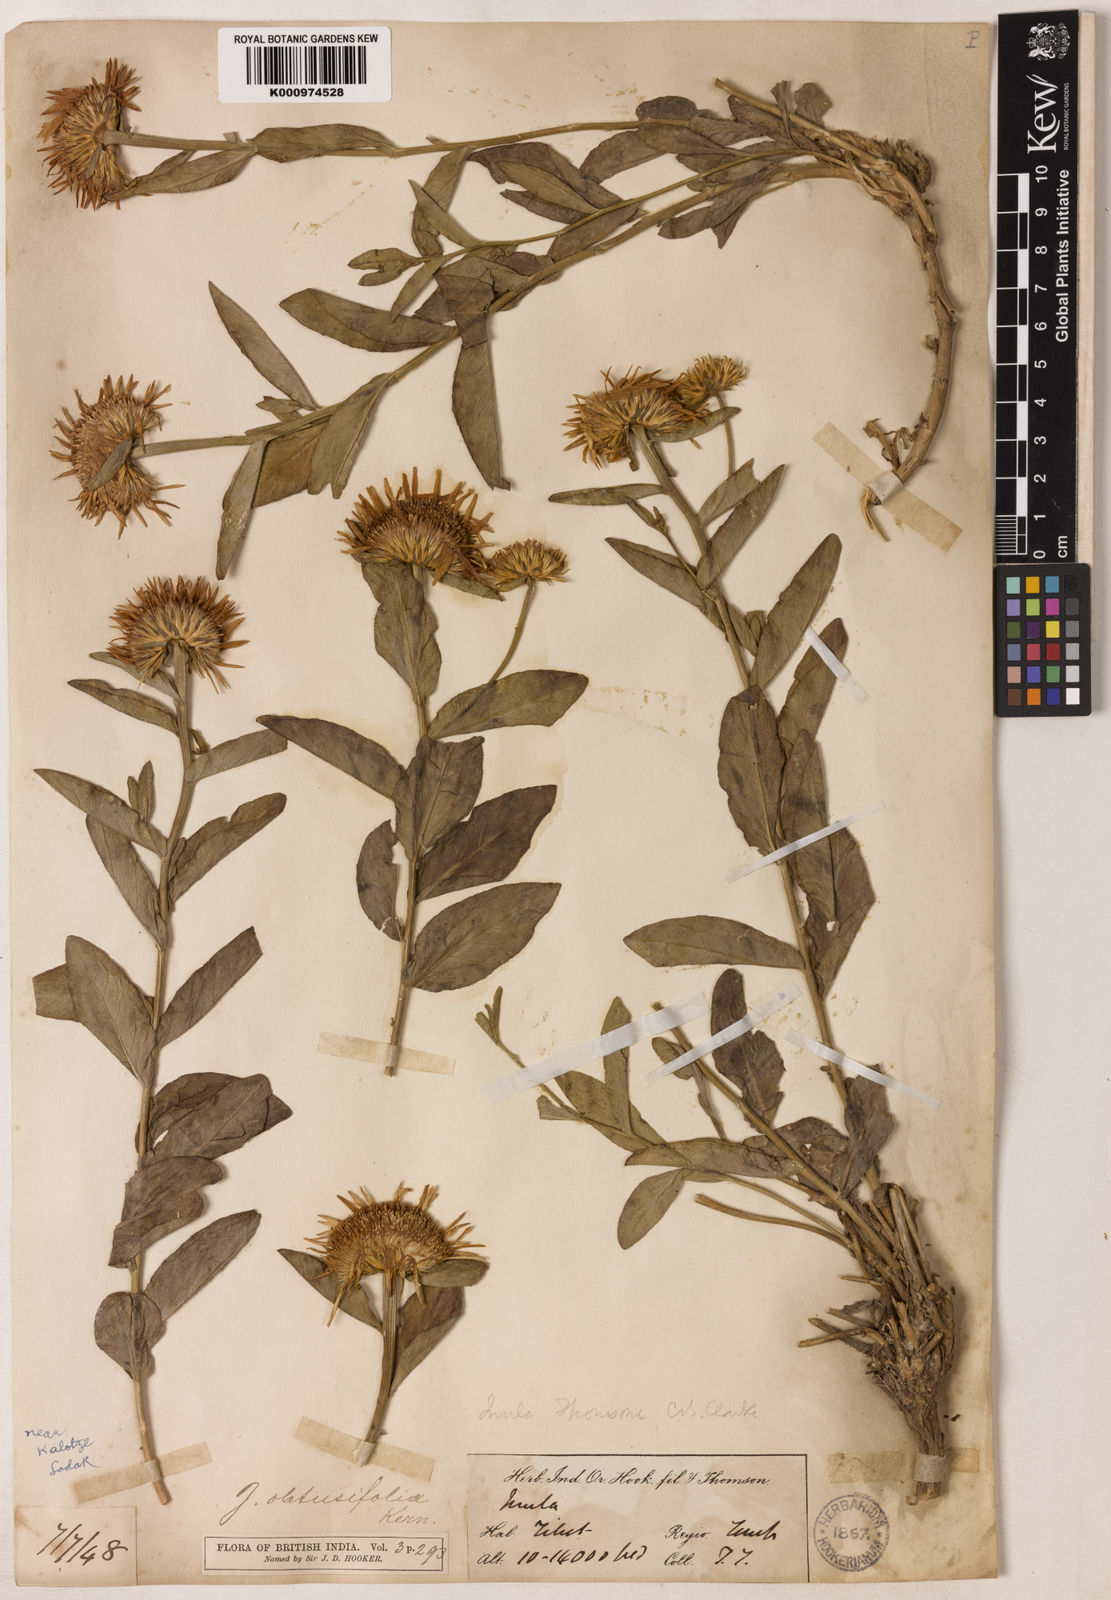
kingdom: Plantae
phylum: Tracheophyta
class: Magnoliopsida
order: Asterales
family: Asteraceae
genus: Inula
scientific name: Inula obtusifolia
